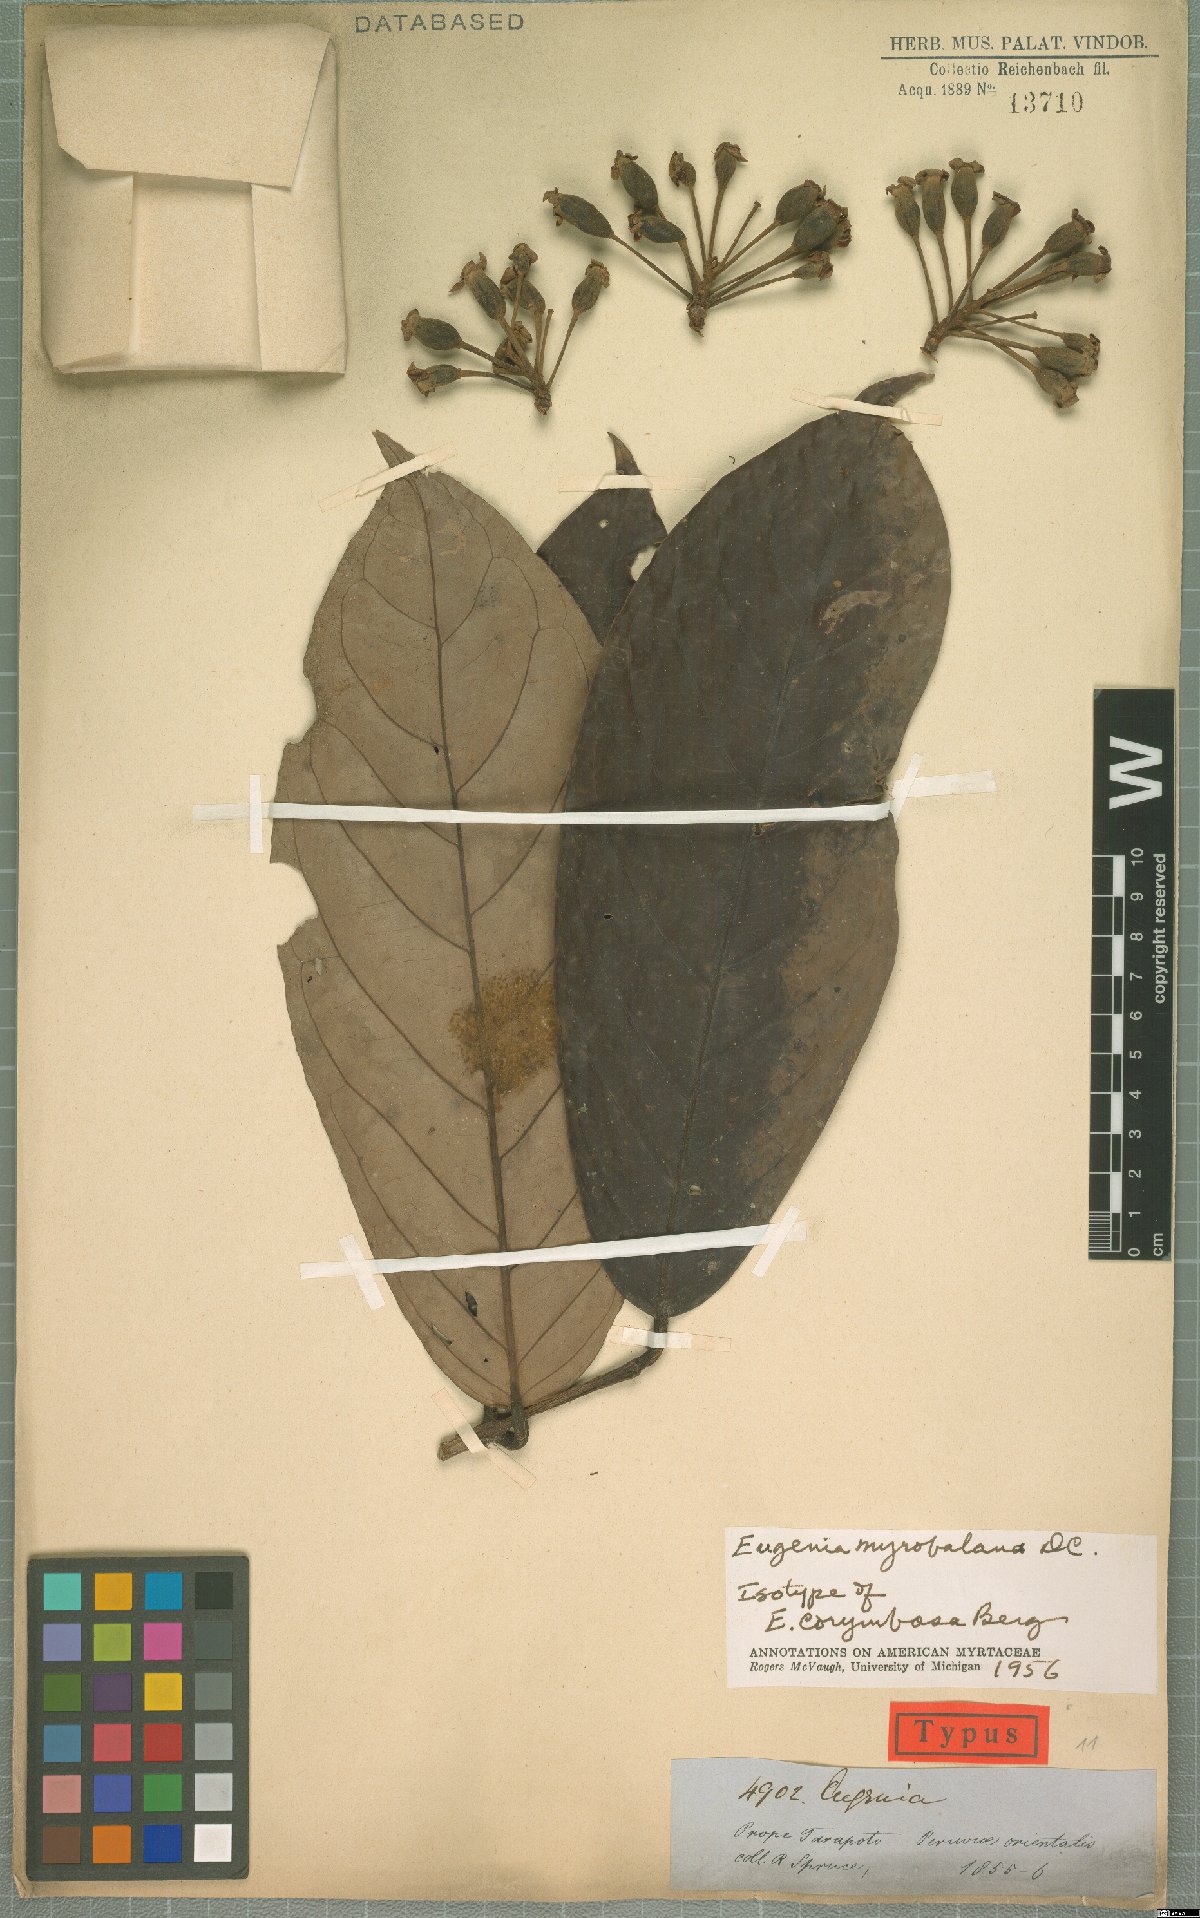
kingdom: Plantae
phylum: Tracheophyta
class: Magnoliopsida
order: Myrtales
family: Myrtaceae
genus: Eugenia
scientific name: Eugenia myrobalana
